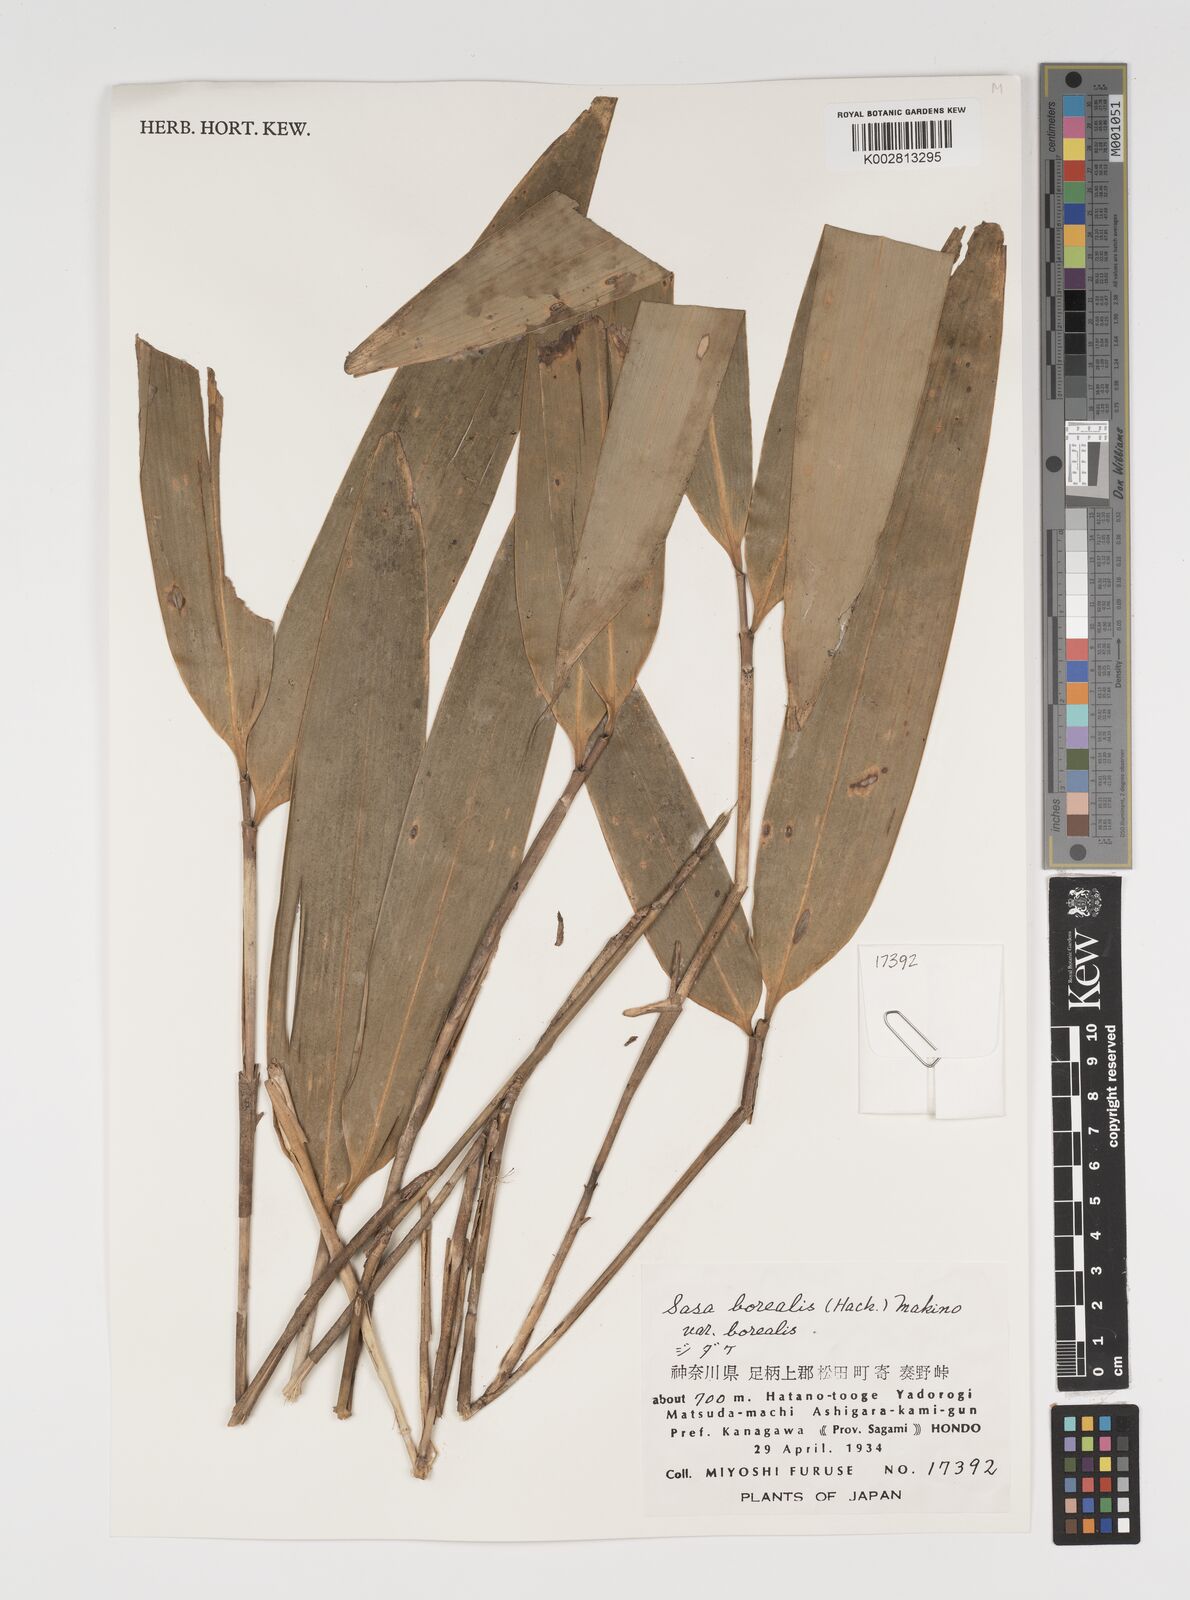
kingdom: Plantae
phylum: Tracheophyta
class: Liliopsida
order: Poales
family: Poaceae
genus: Sasamorpha
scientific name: Sasamorpha borealis
